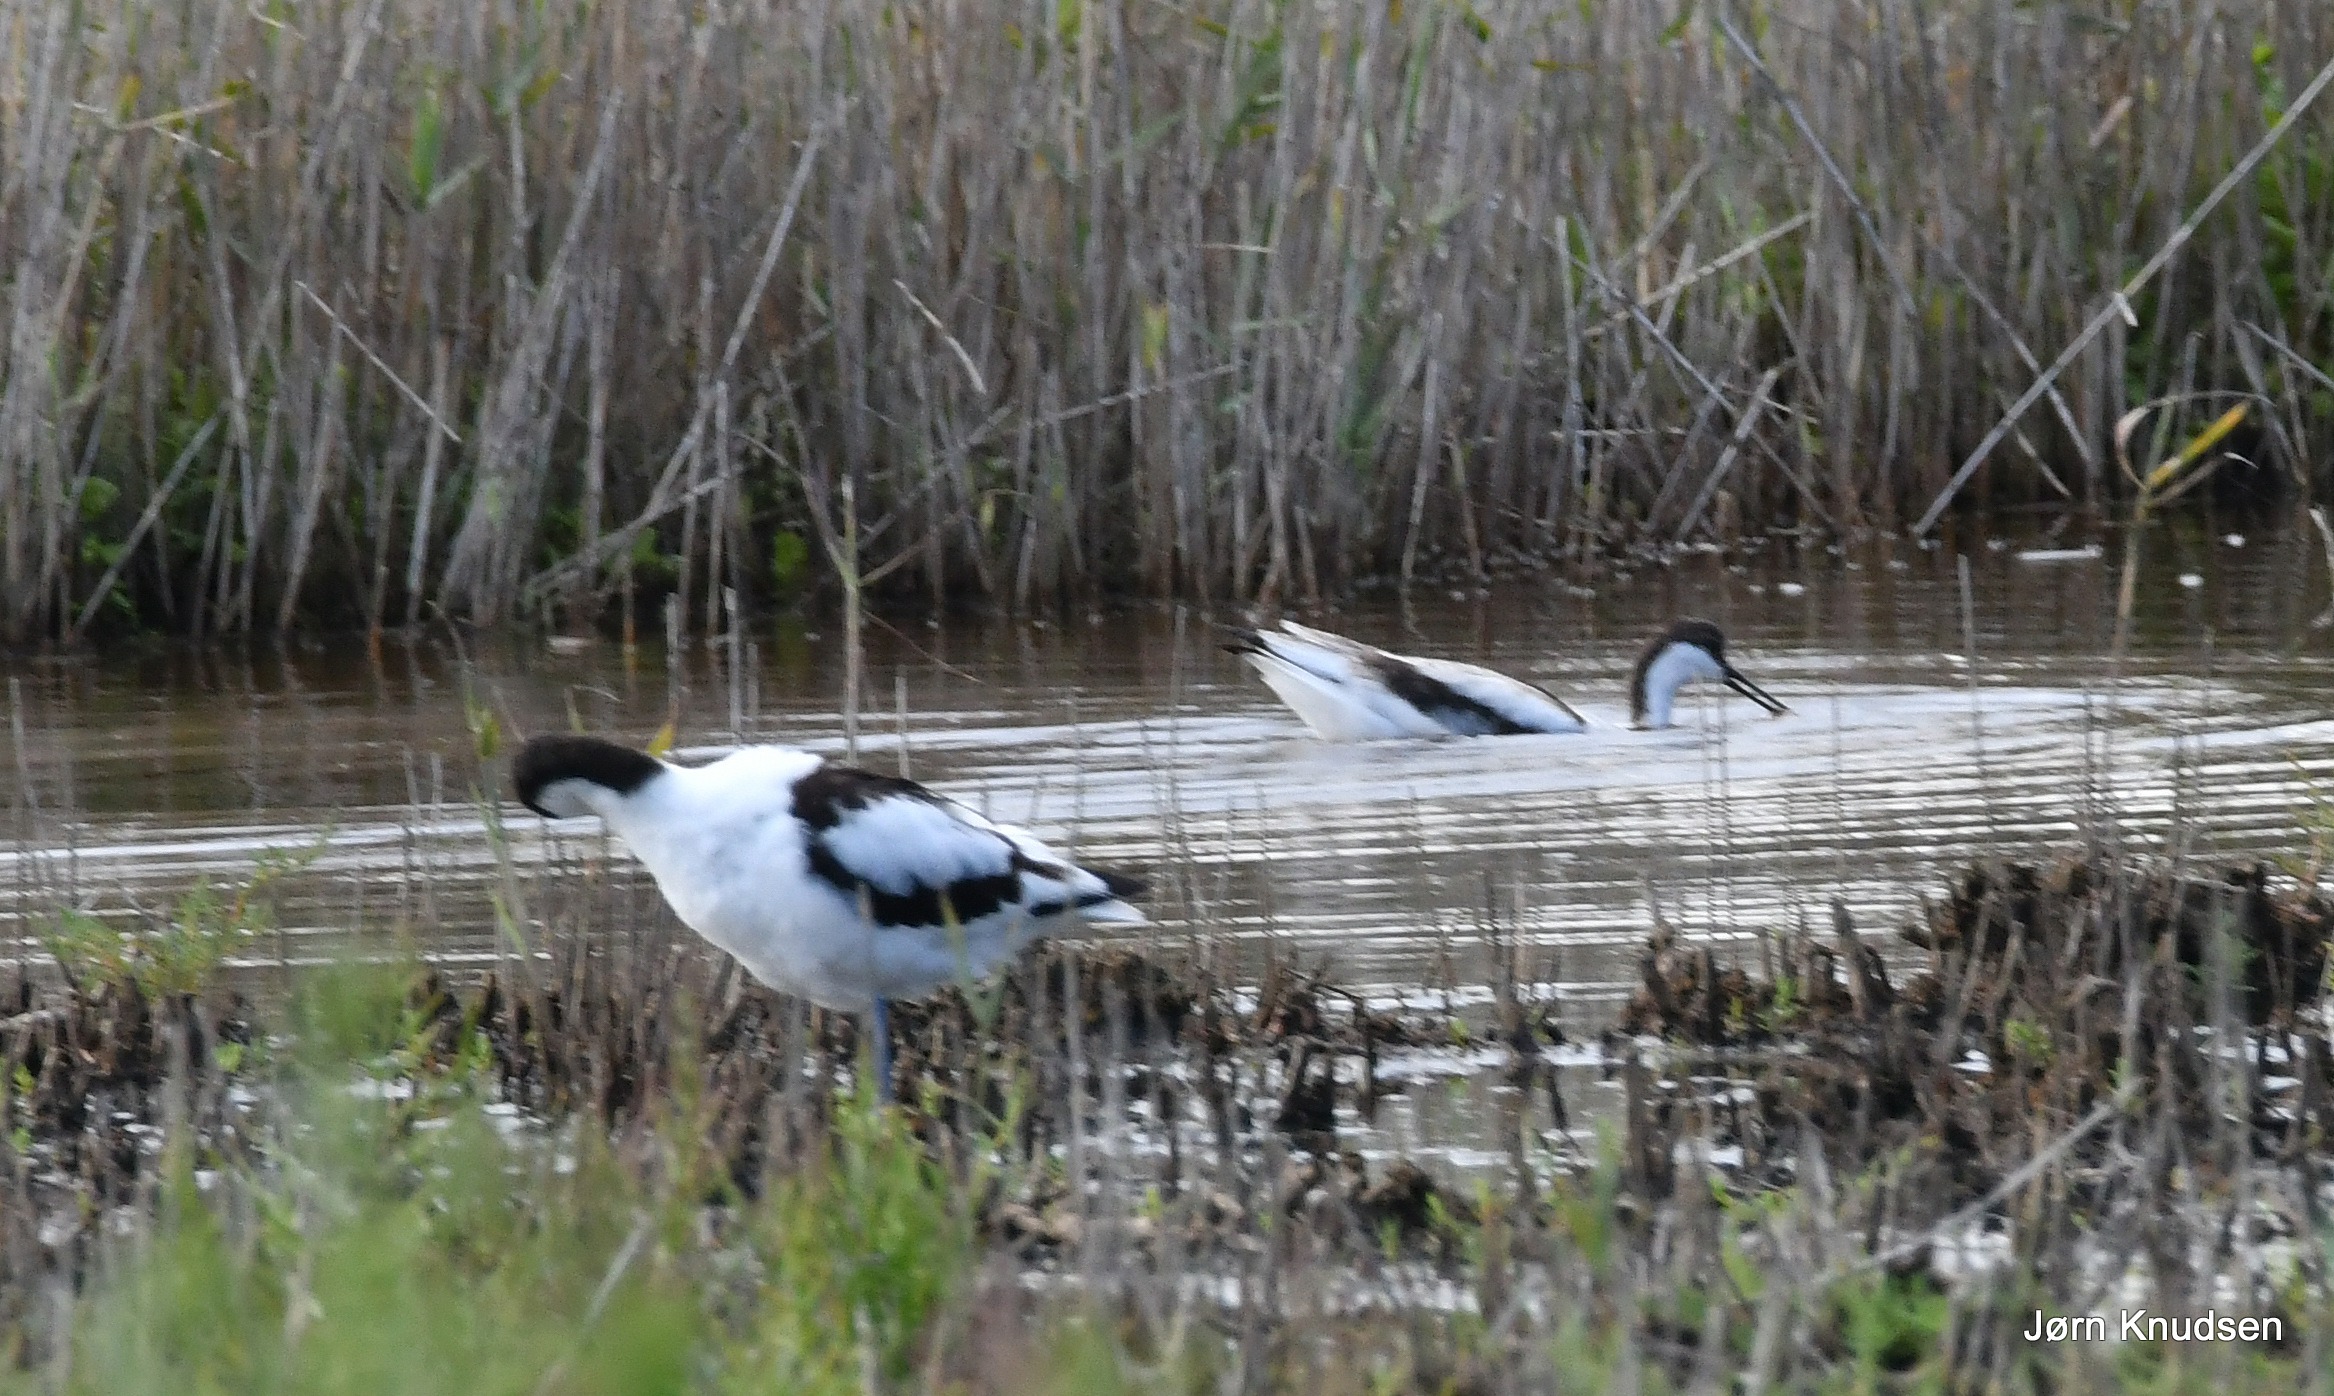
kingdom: Animalia
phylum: Chordata
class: Aves
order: Charadriiformes
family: Recurvirostridae
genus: Recurvirostra
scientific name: Recurvirostra avosetta
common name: Klyde
